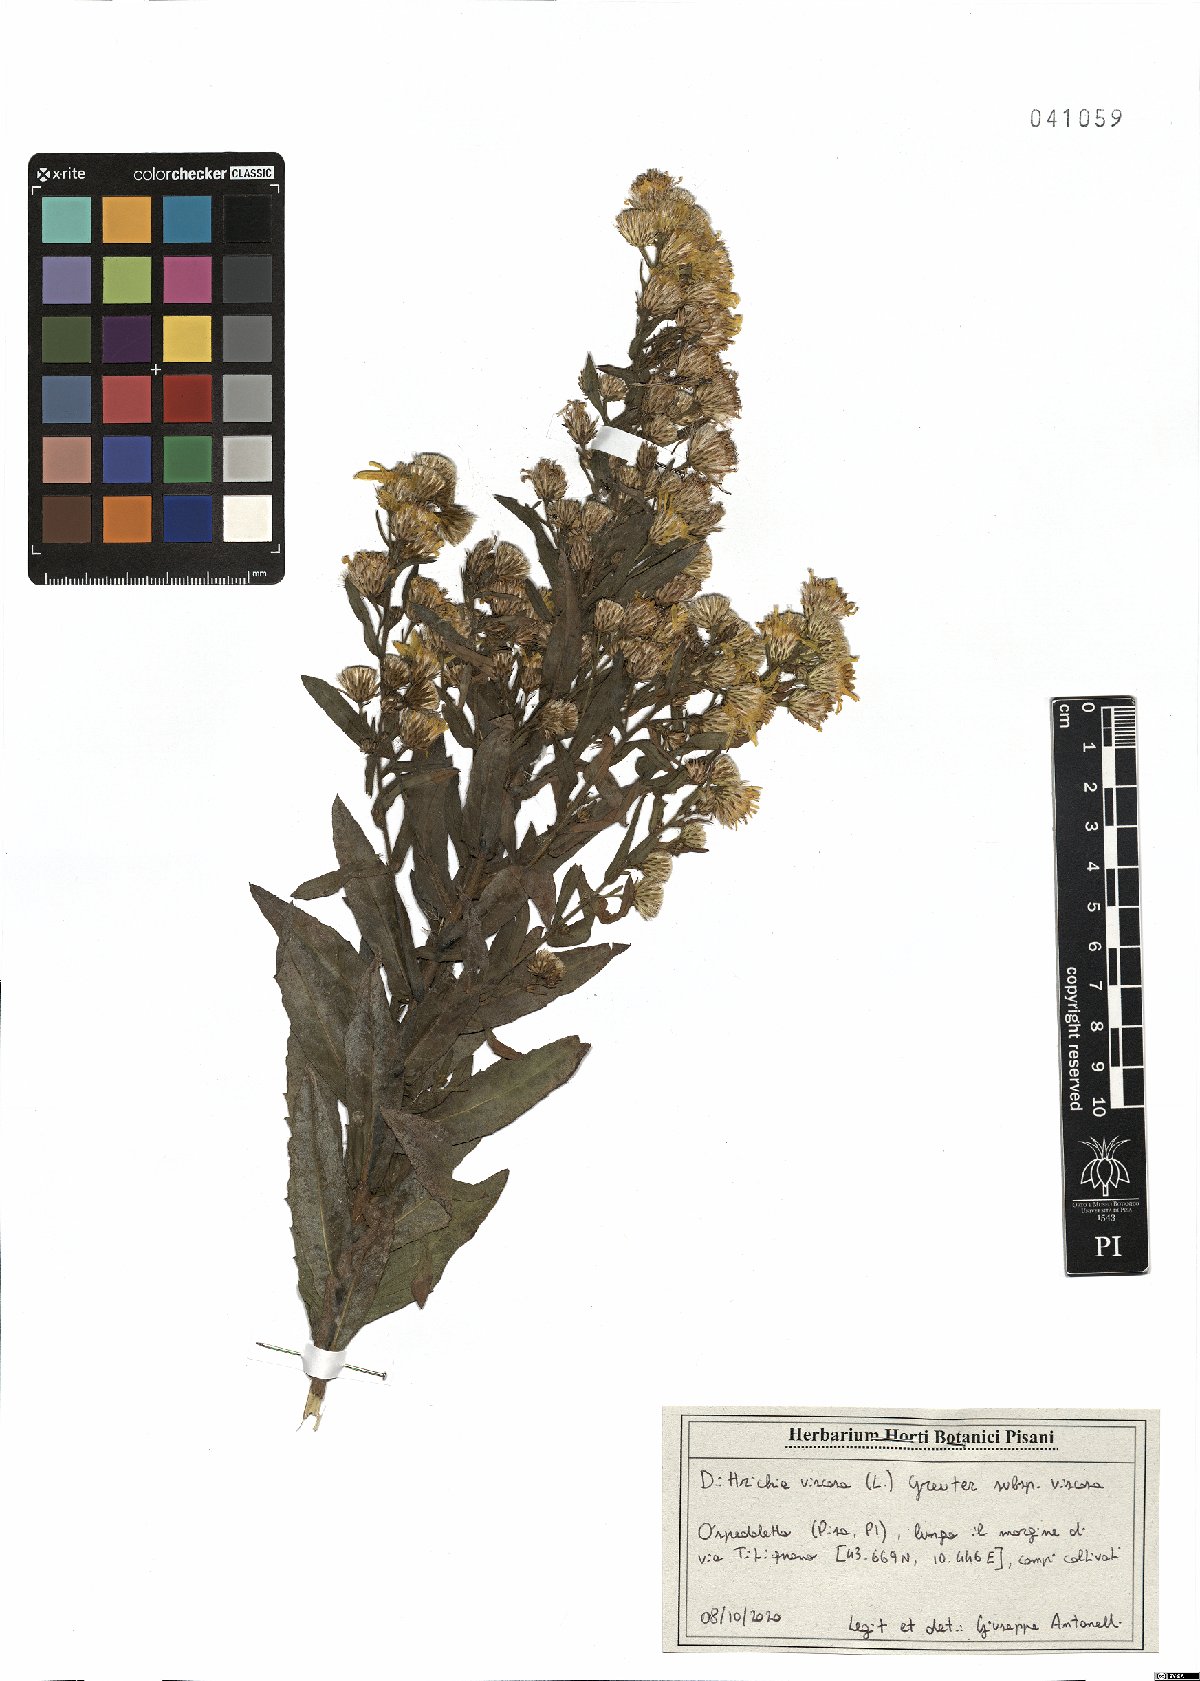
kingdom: Plantae
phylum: Tracheophyta
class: Magnoliopsida
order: Asterales
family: Asteraceae
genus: Dittrichia
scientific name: Dittrichia viscosa
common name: Woody fleabane
